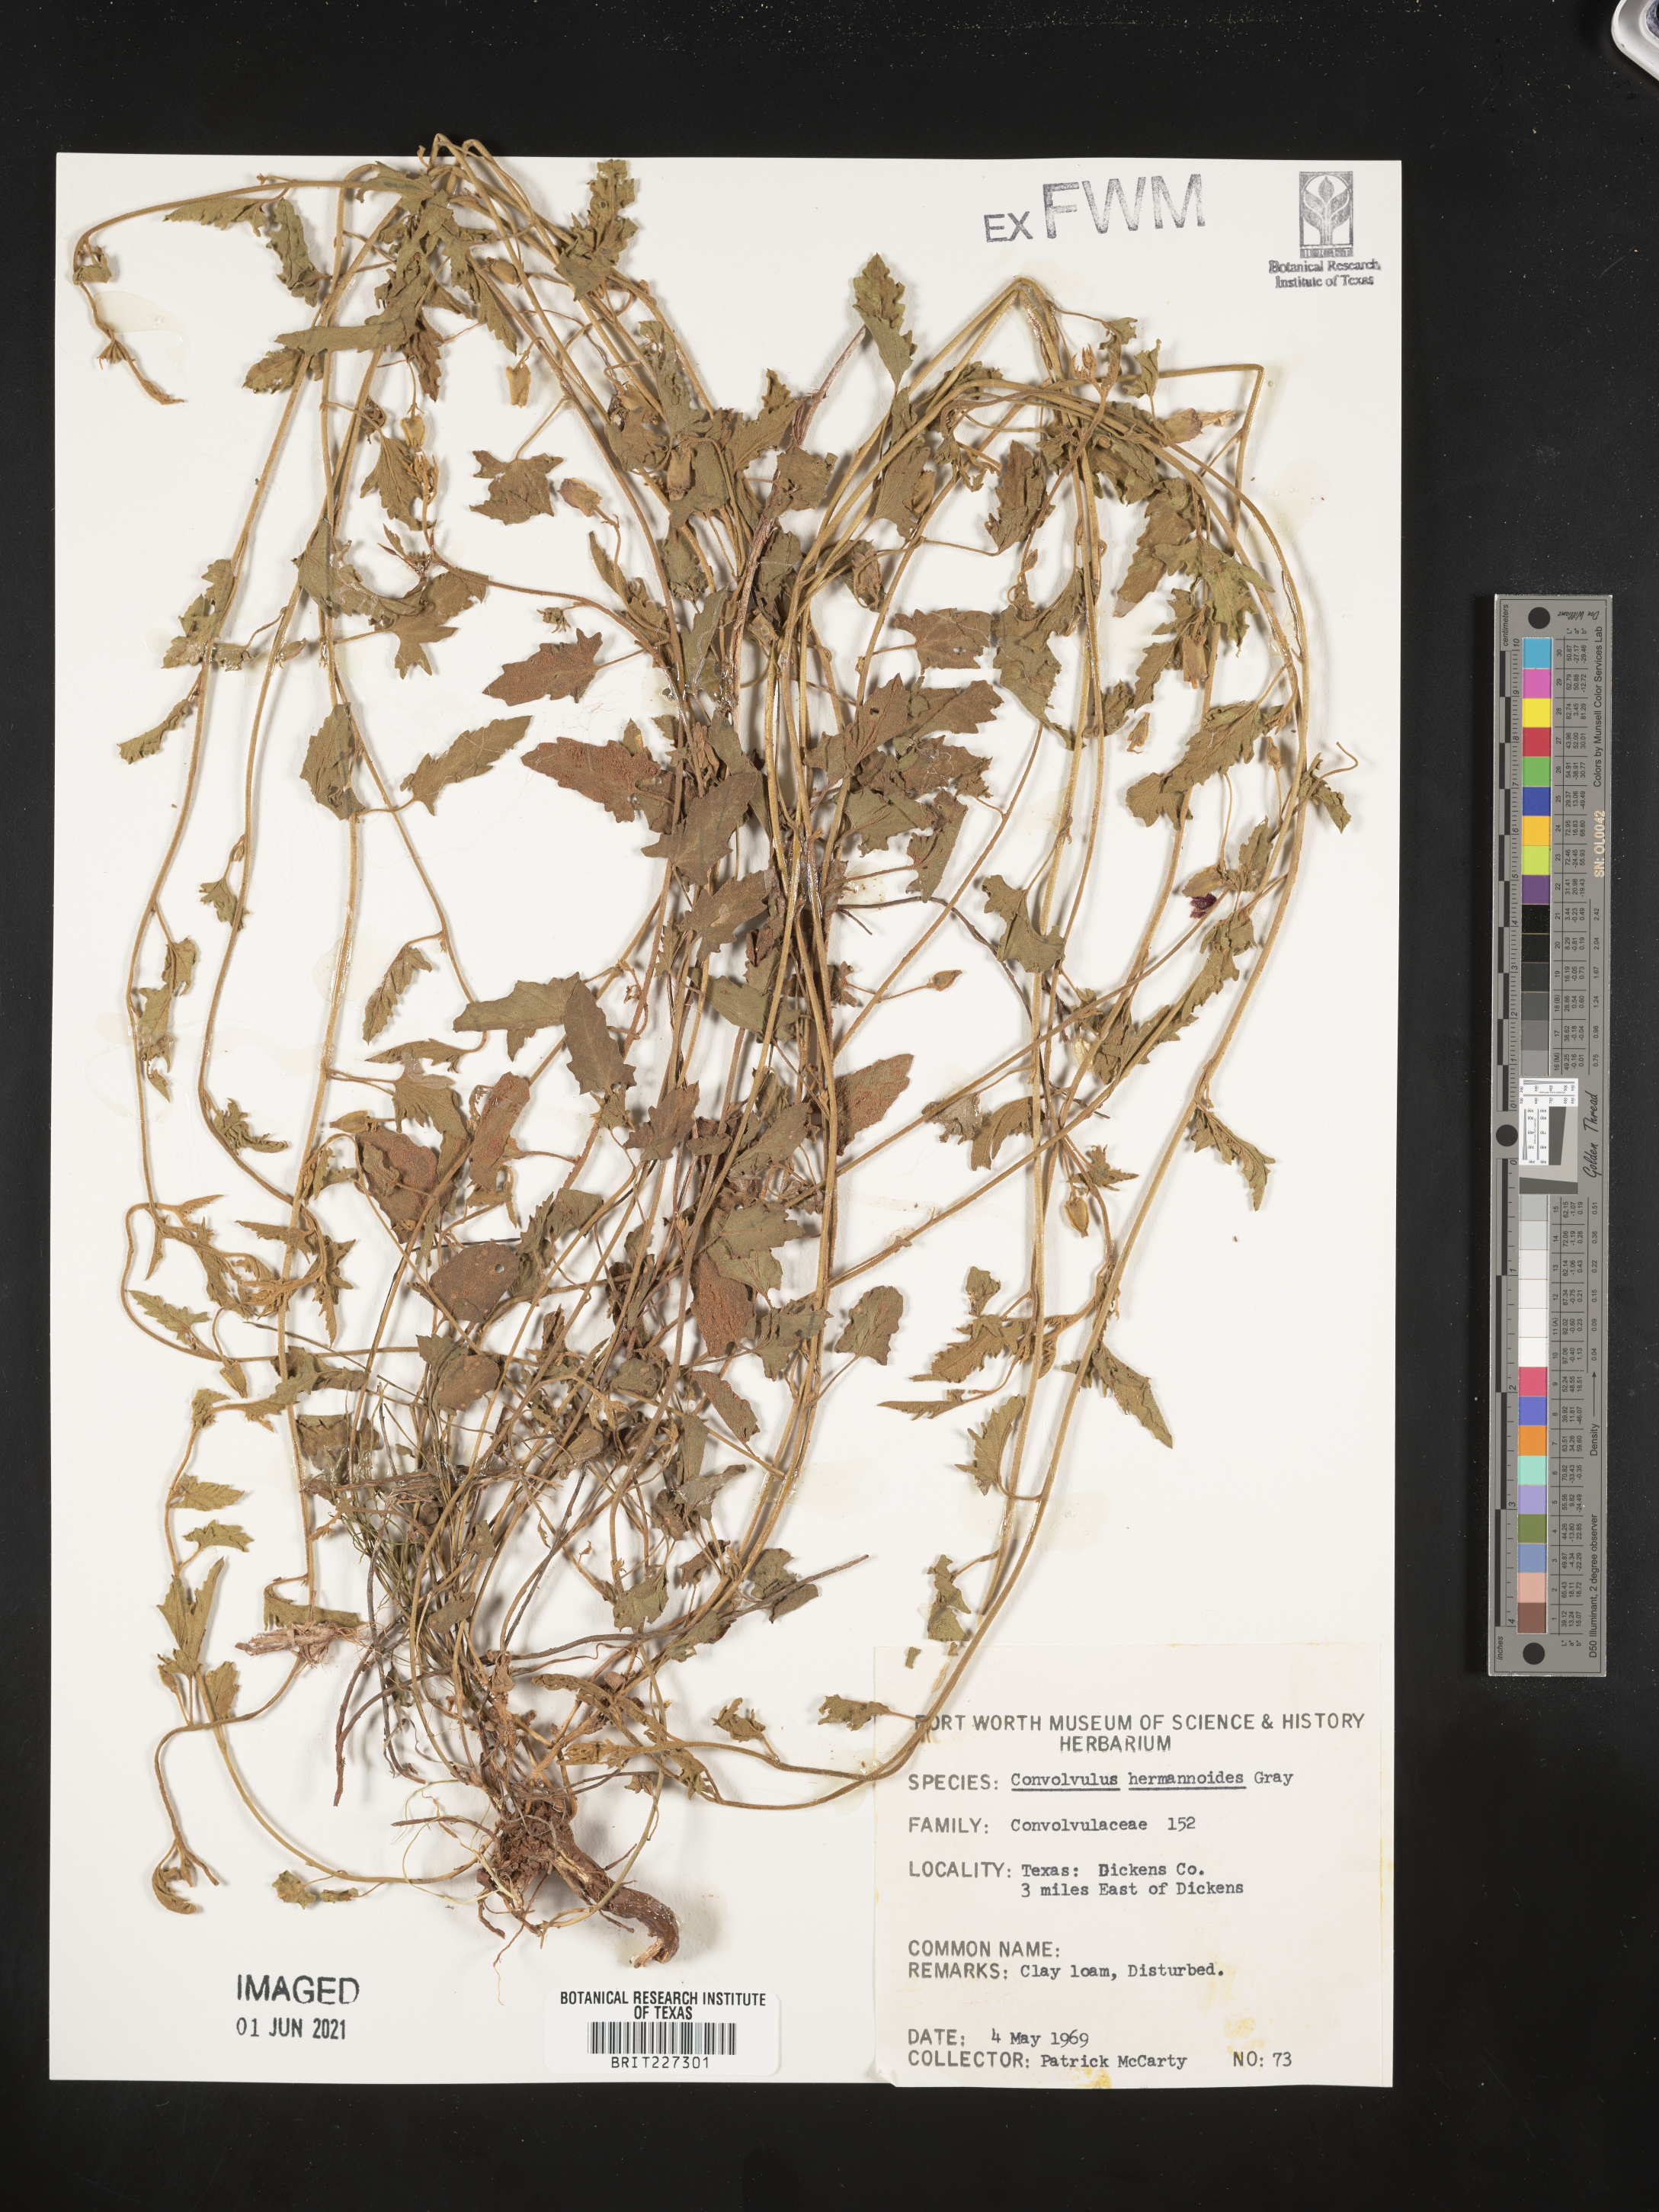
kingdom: Plantae
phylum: Tracheophyta
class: Magnoliopsida
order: Solanales
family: Convolvulaceae
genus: Convolvulus
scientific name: Convolvulus equitans
